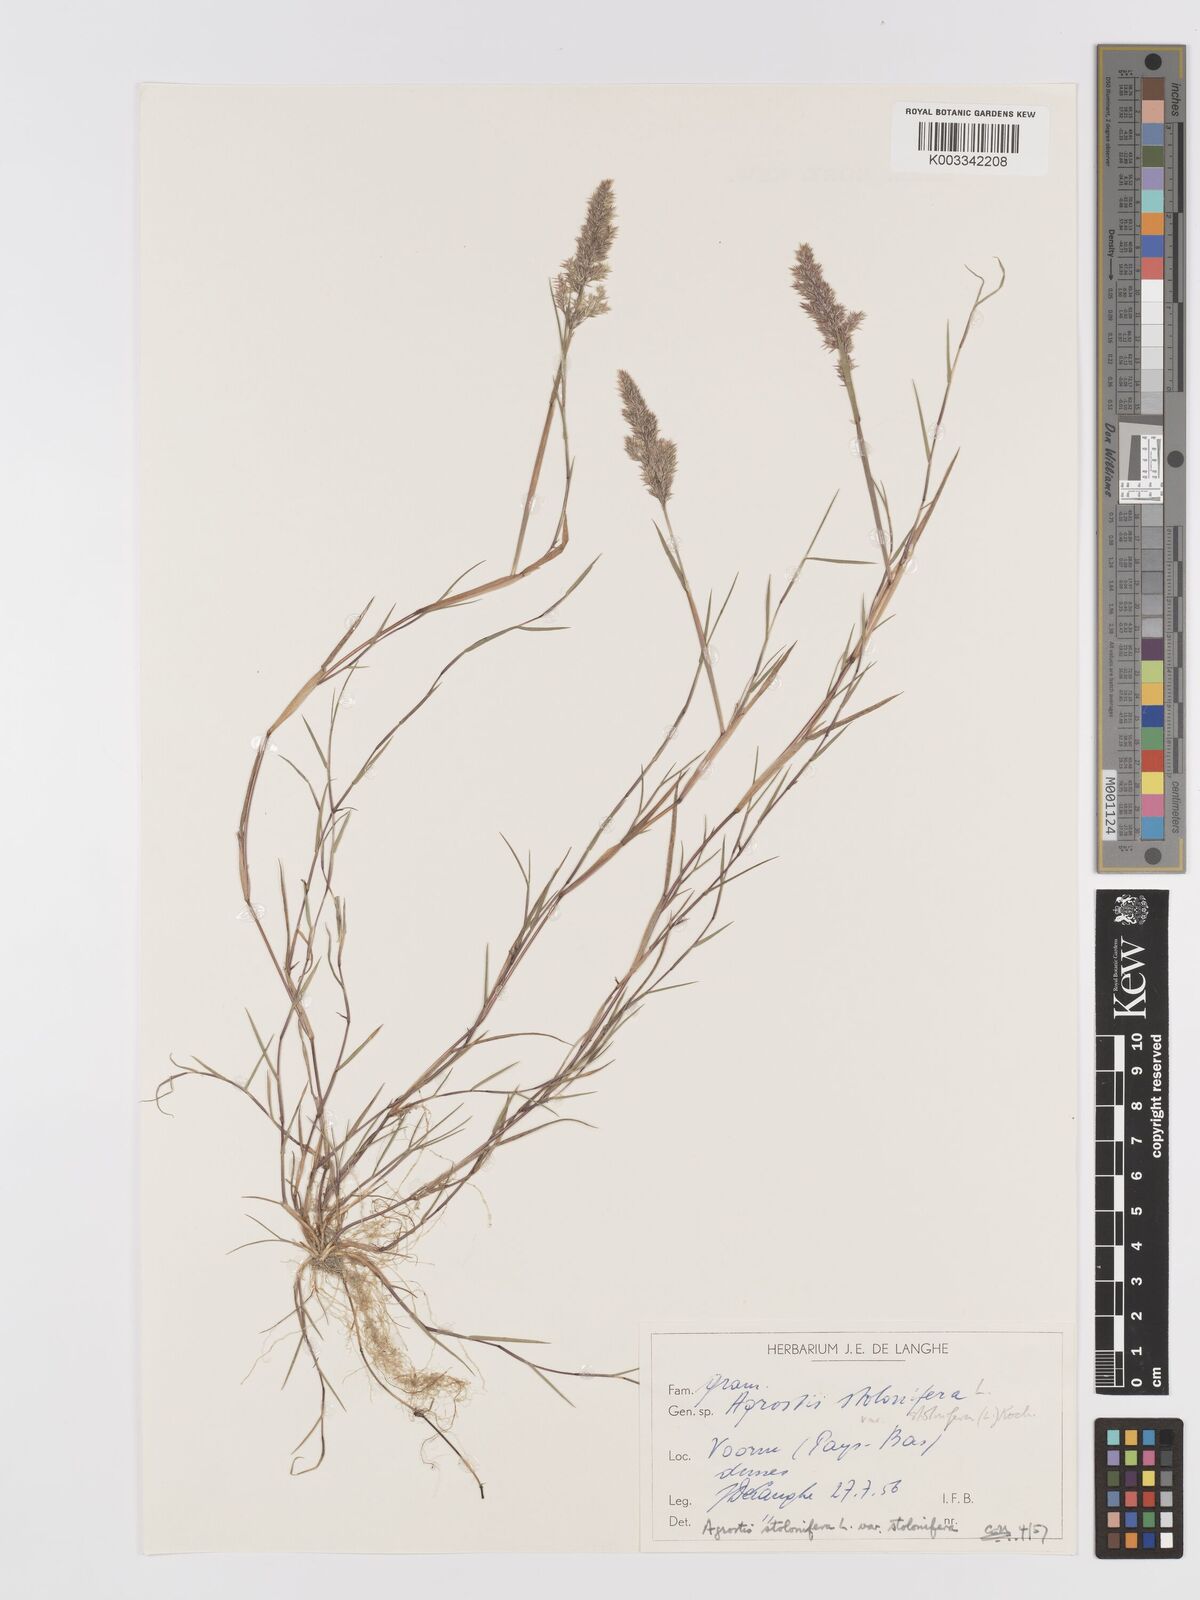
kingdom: Plantae
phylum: Tracheophyta
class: Liliopsida
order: Poales
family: Poaceae
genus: Agrostis
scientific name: Agrostis stolonifera
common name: Creeping bentgrass
